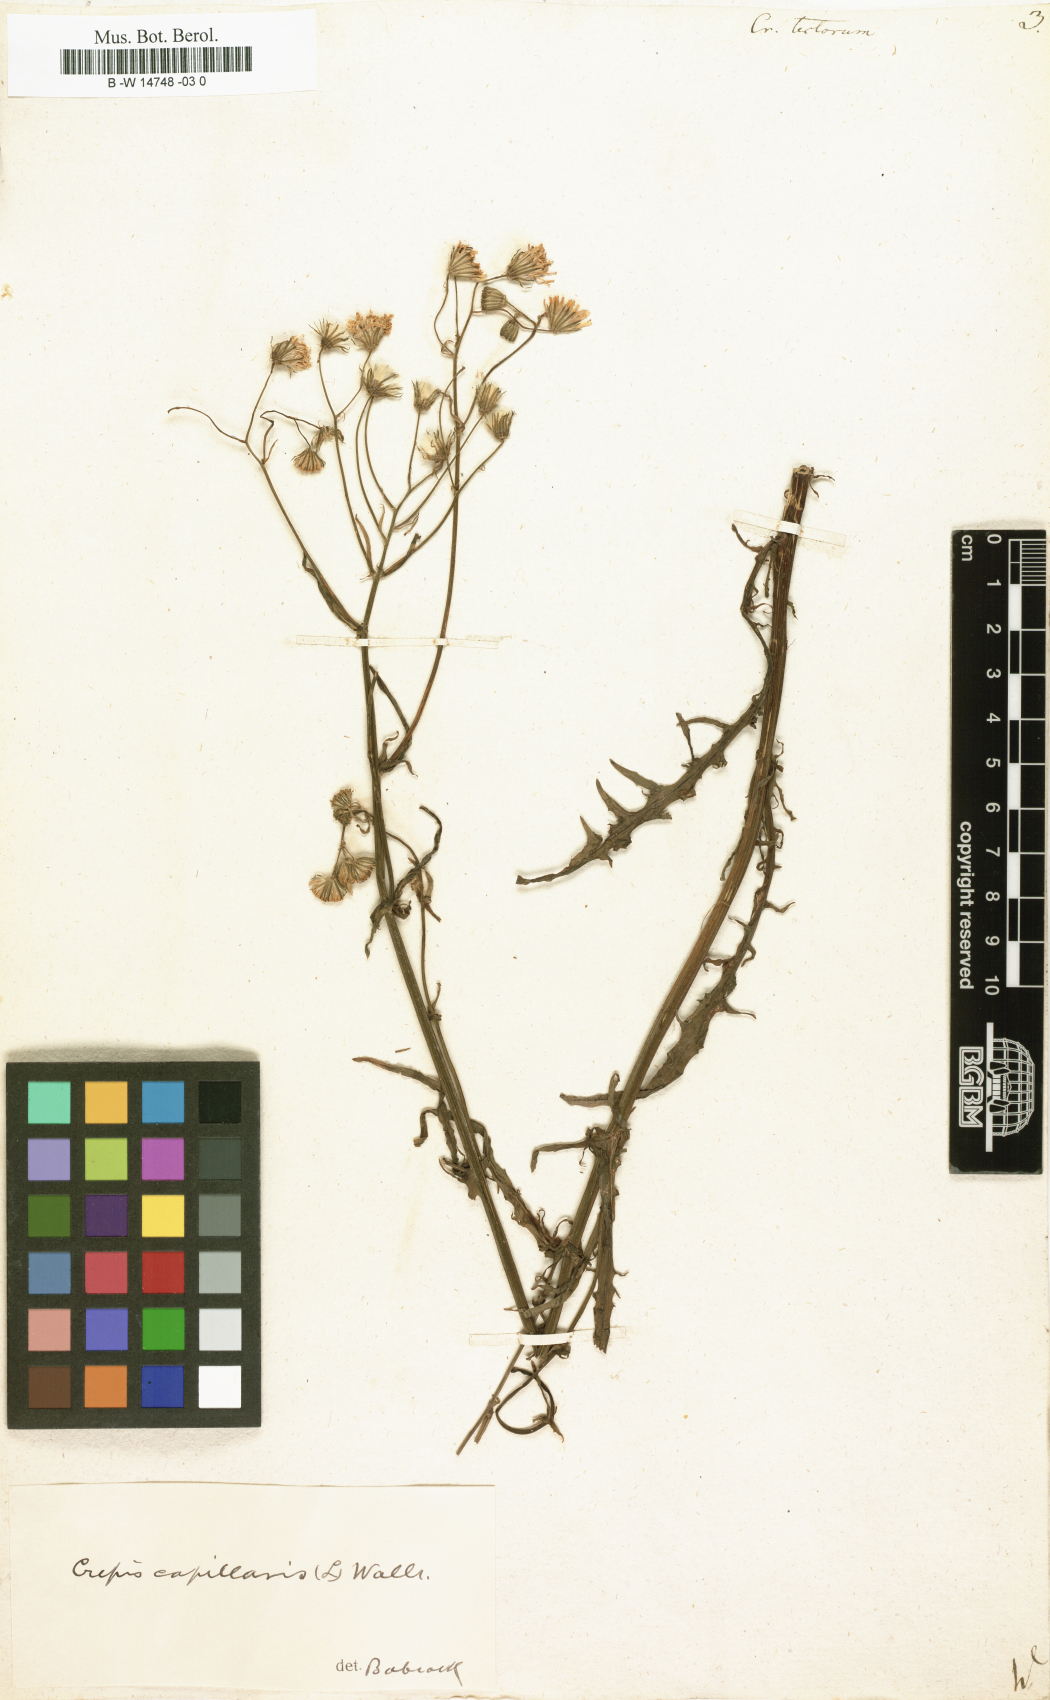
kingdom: Plantae
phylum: Tracheophyta
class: Magnoliopsida
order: Asterales
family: Asteraceae
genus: Crepis
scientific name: Crepis tectorum
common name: Narrow-leaved hawk's-beard
